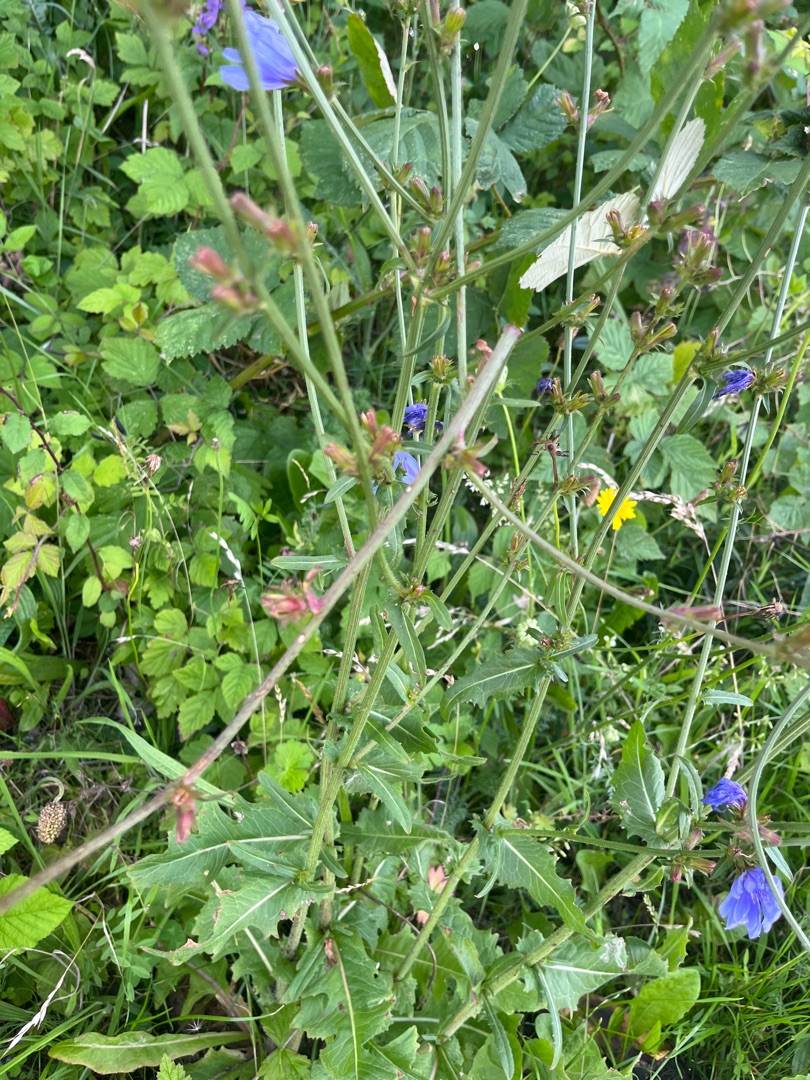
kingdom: Plantae
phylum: Tracheophyta
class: Magnoliopsida
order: Asterales
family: Asteraceae
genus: Cichorium
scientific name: Cichorium intybus
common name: Cikorie
